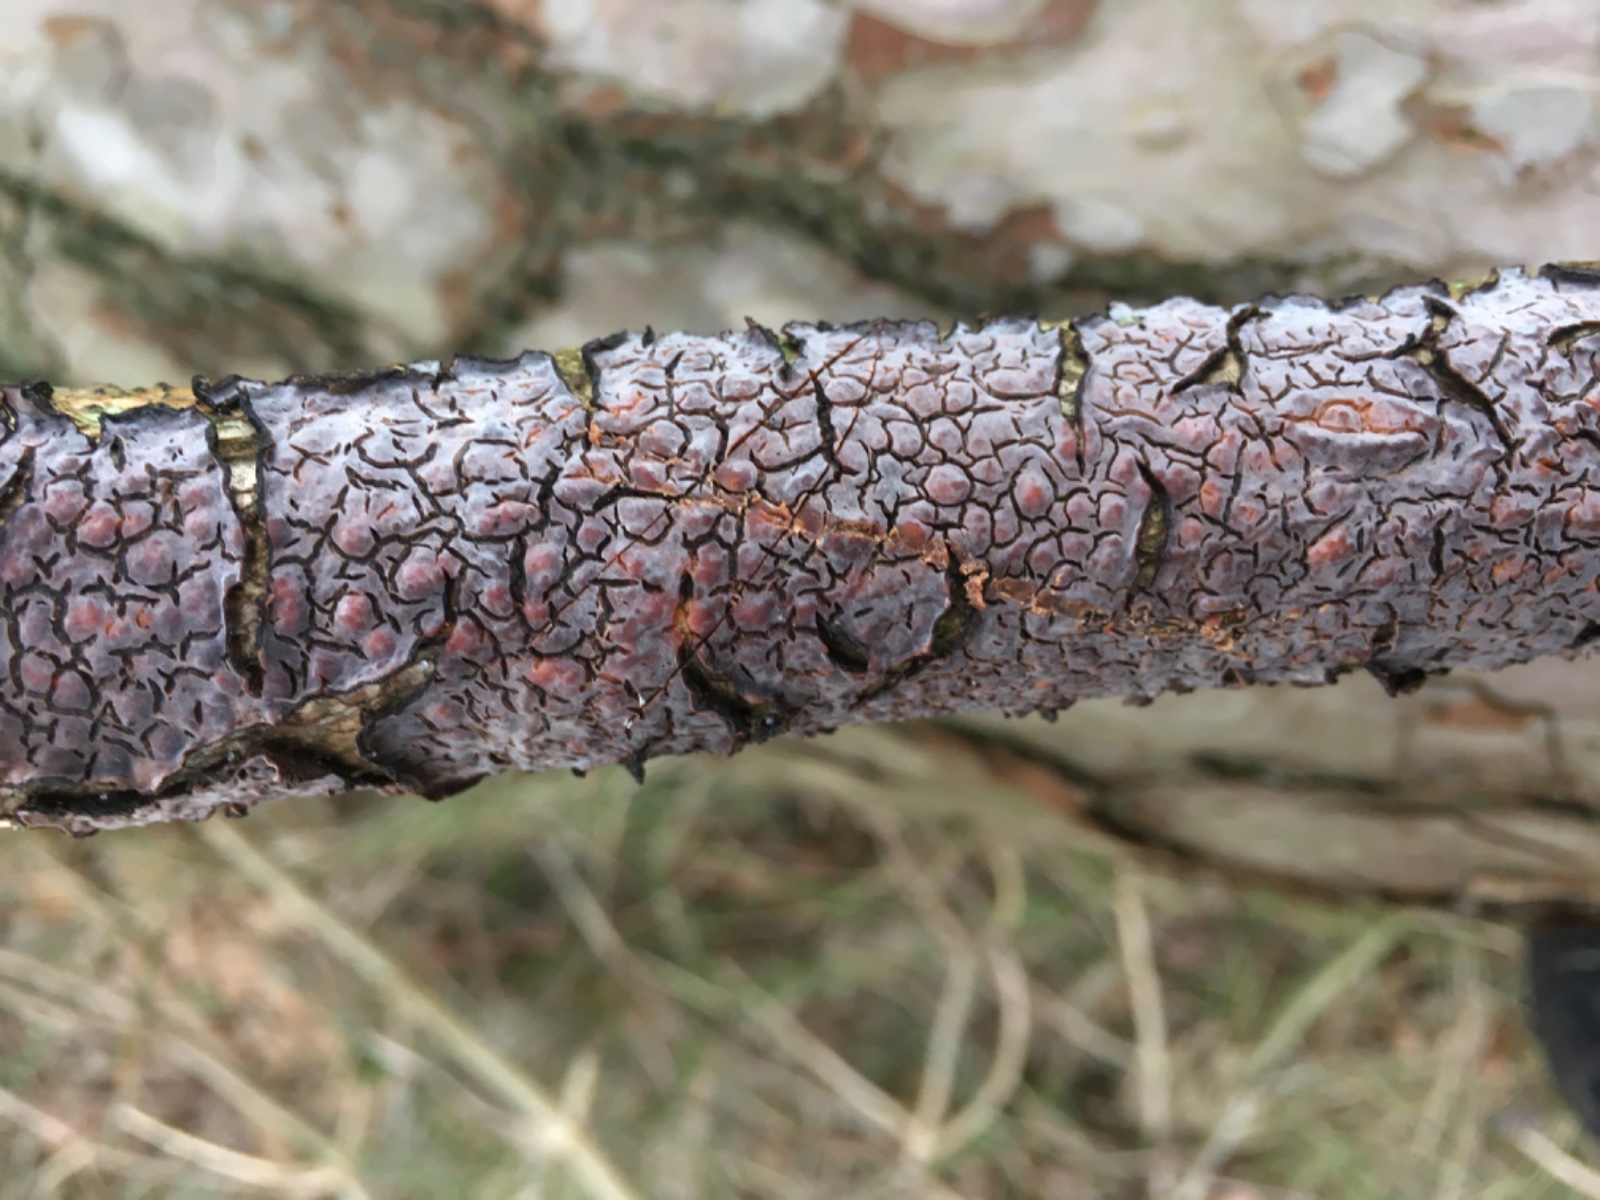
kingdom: Fungi
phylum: Basidiomycota
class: Agaricomycetes
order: Russulales
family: Peniophoraceae
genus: Peniophora
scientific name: Peniophora quercina
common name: ege-voksskind
